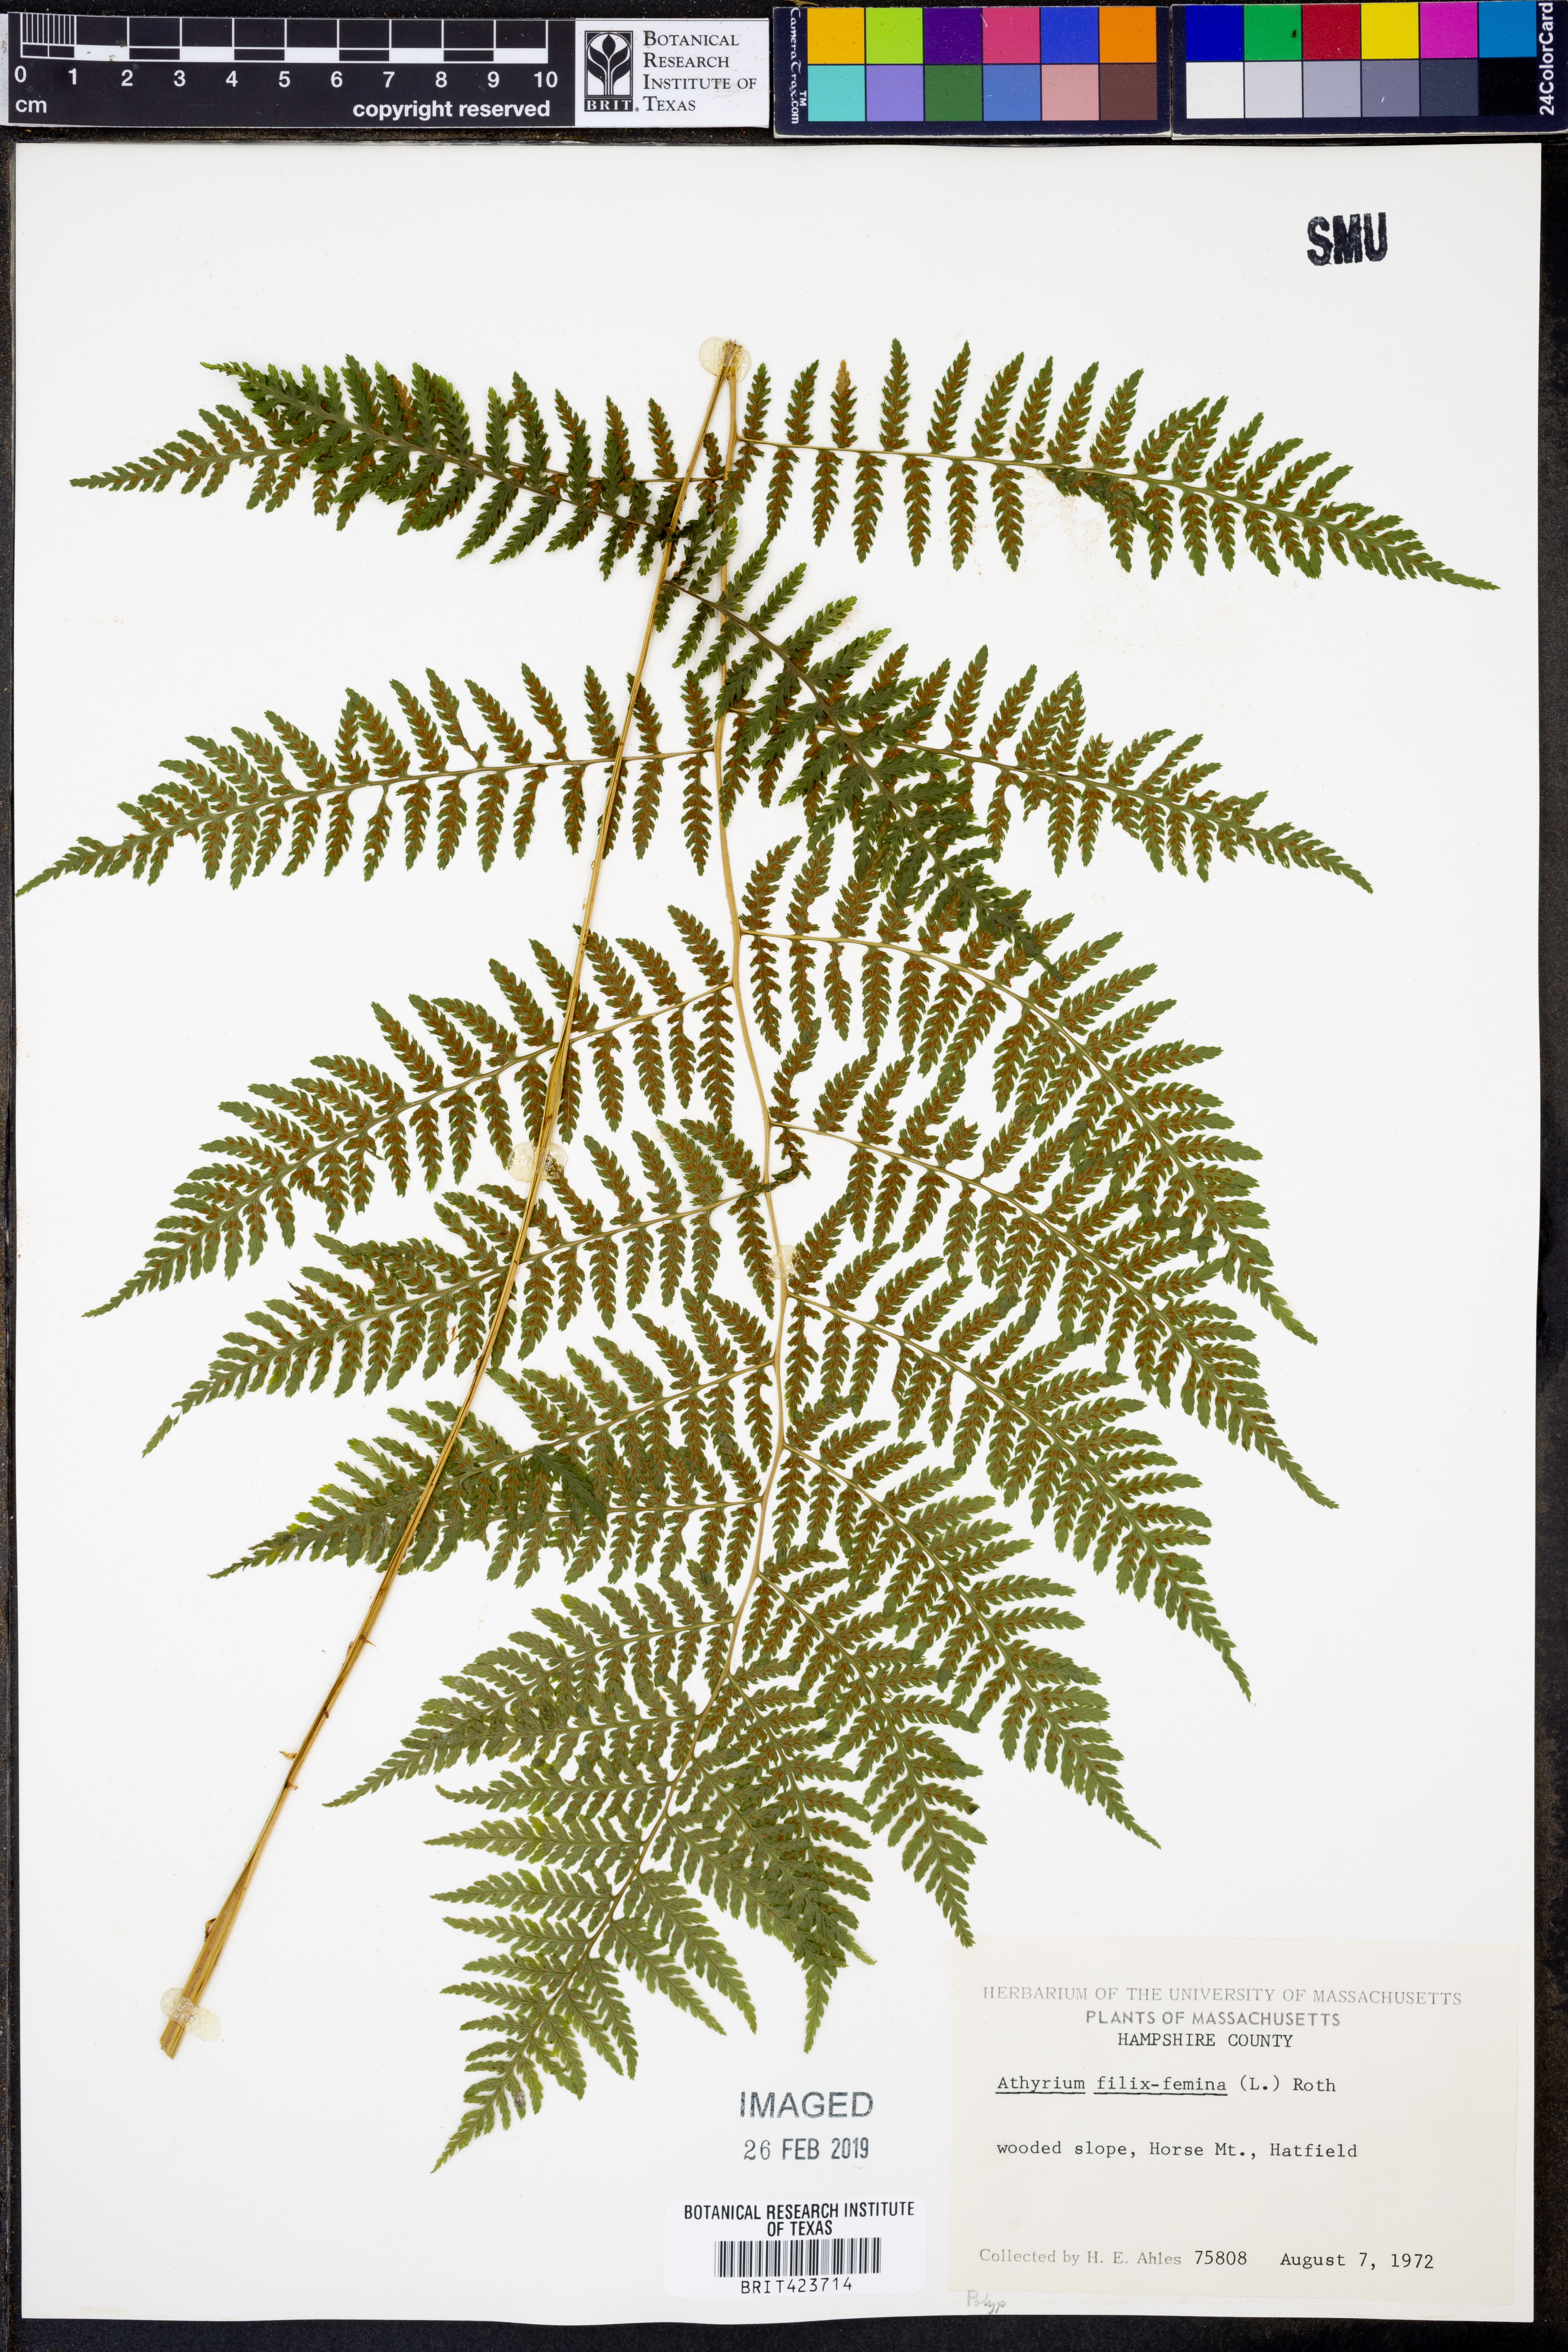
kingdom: Plantae
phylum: Tracheophyta
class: Polypodiopsida
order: Polypodiales
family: Athyriaceae
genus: Athyrium
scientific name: Athyrium filix-femina
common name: Lady fern
